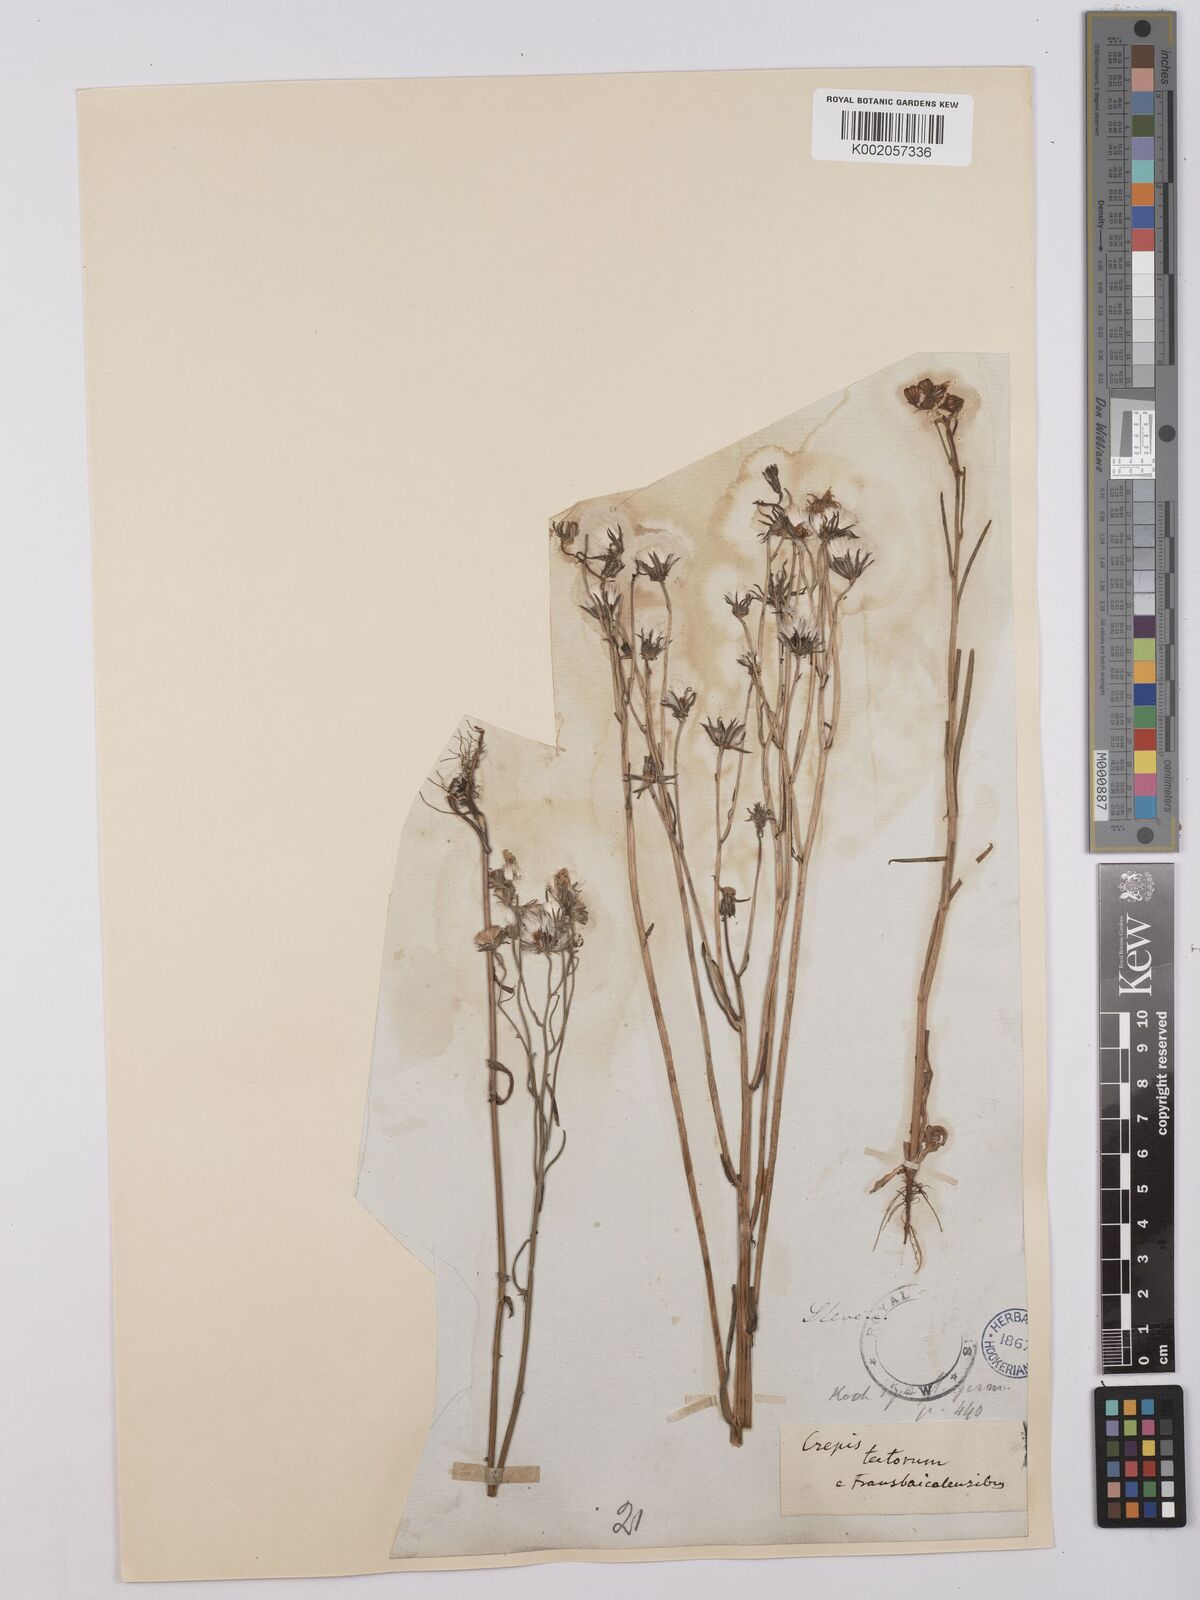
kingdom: Plantae
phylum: Tracheophyta
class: Magnoliopsida
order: Asterales
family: Asteraceae
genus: Crepis
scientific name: Crepis tectorum
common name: Narrow-leaved hawk's-beard
